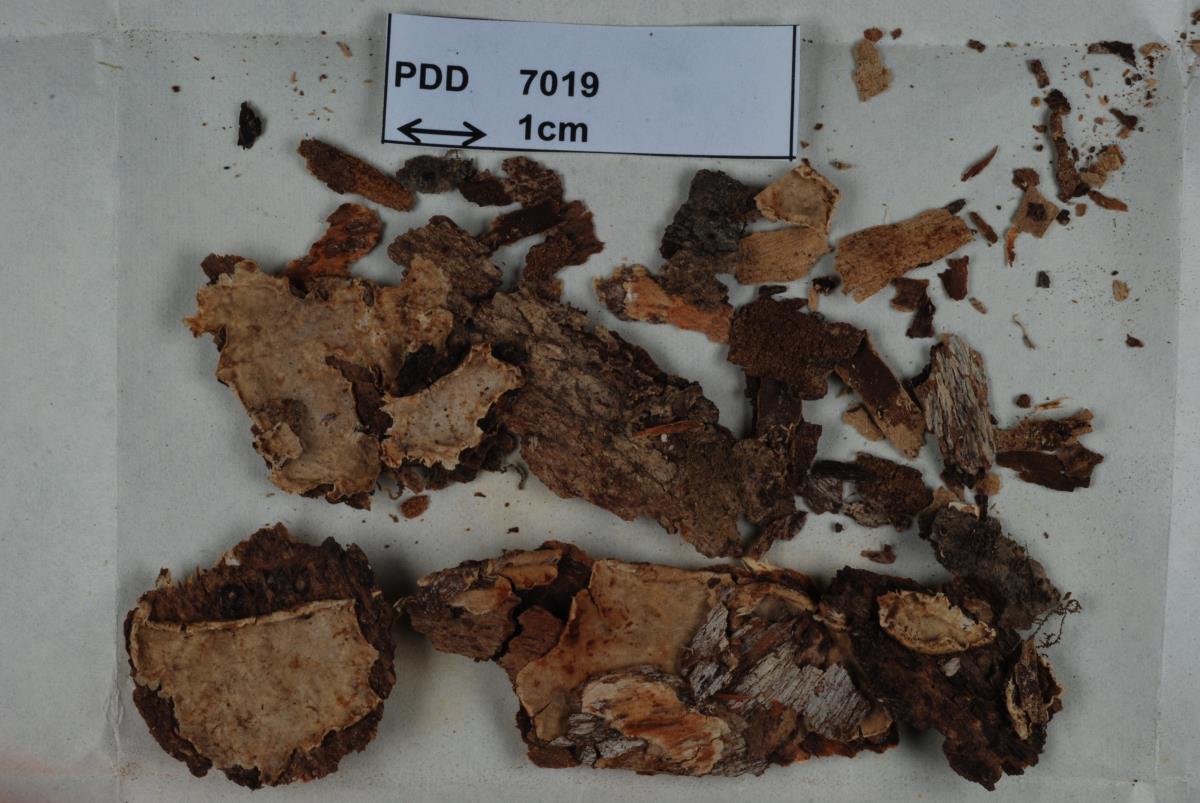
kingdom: Fungi
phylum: Basidiomycota
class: Agaricomycetes
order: Russulales
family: Stereaceae
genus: Stereum
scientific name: Stereum scutellatum
